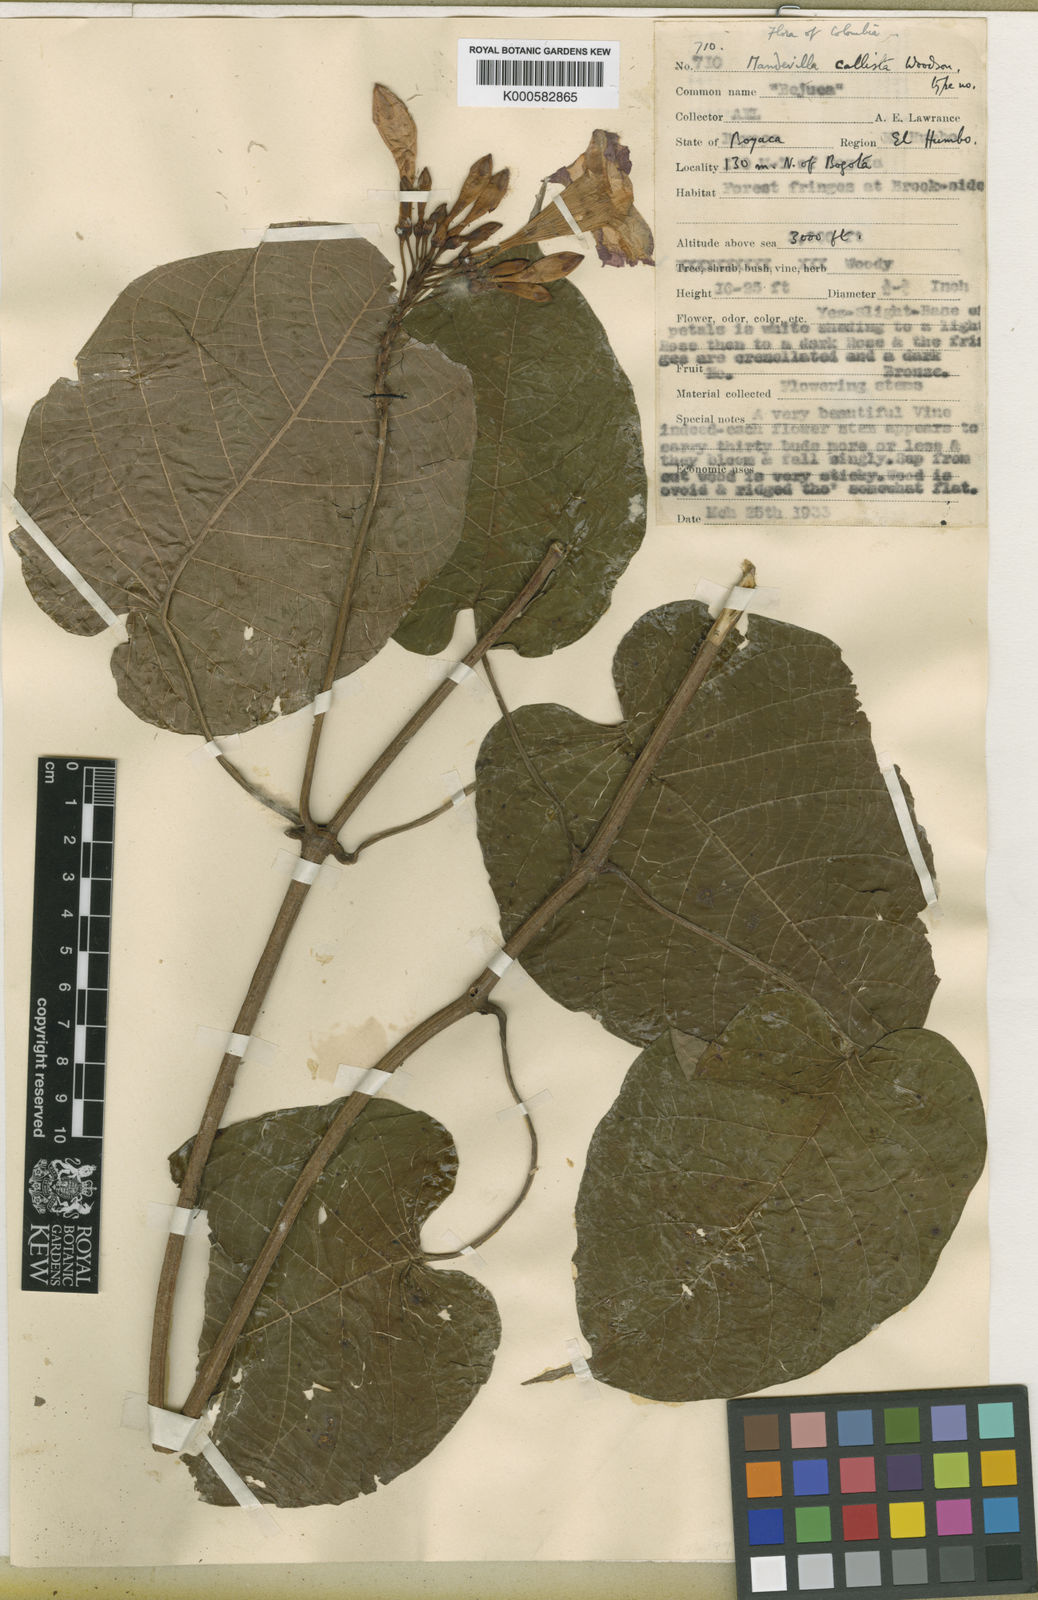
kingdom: Plantae
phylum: Tracheophyta
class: Magnoliopsida
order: Gentianales
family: Apocynaceae
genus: Mandevilla
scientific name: Mandevilla callista
